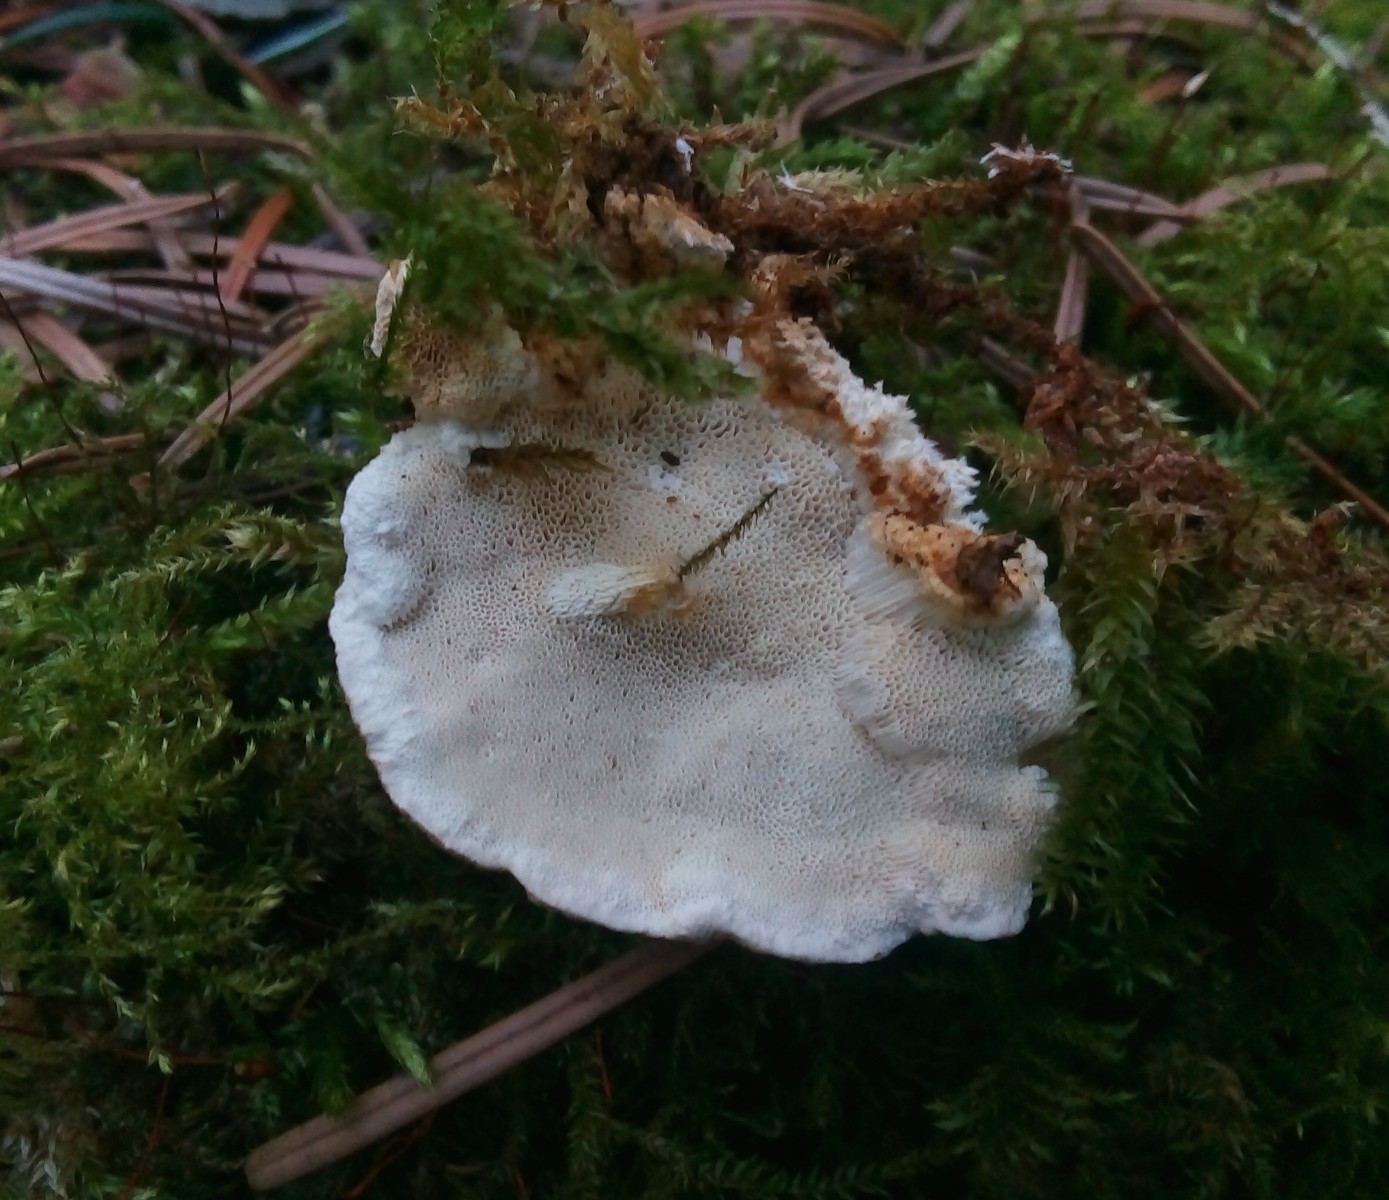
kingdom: Fungi
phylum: Basidiomycota
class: Agaricomycetes
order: Polyporales
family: Fomitopsidaceae
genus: Neoantrodia
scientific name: Neoantrodia serialis
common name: række-sejporesvamp
